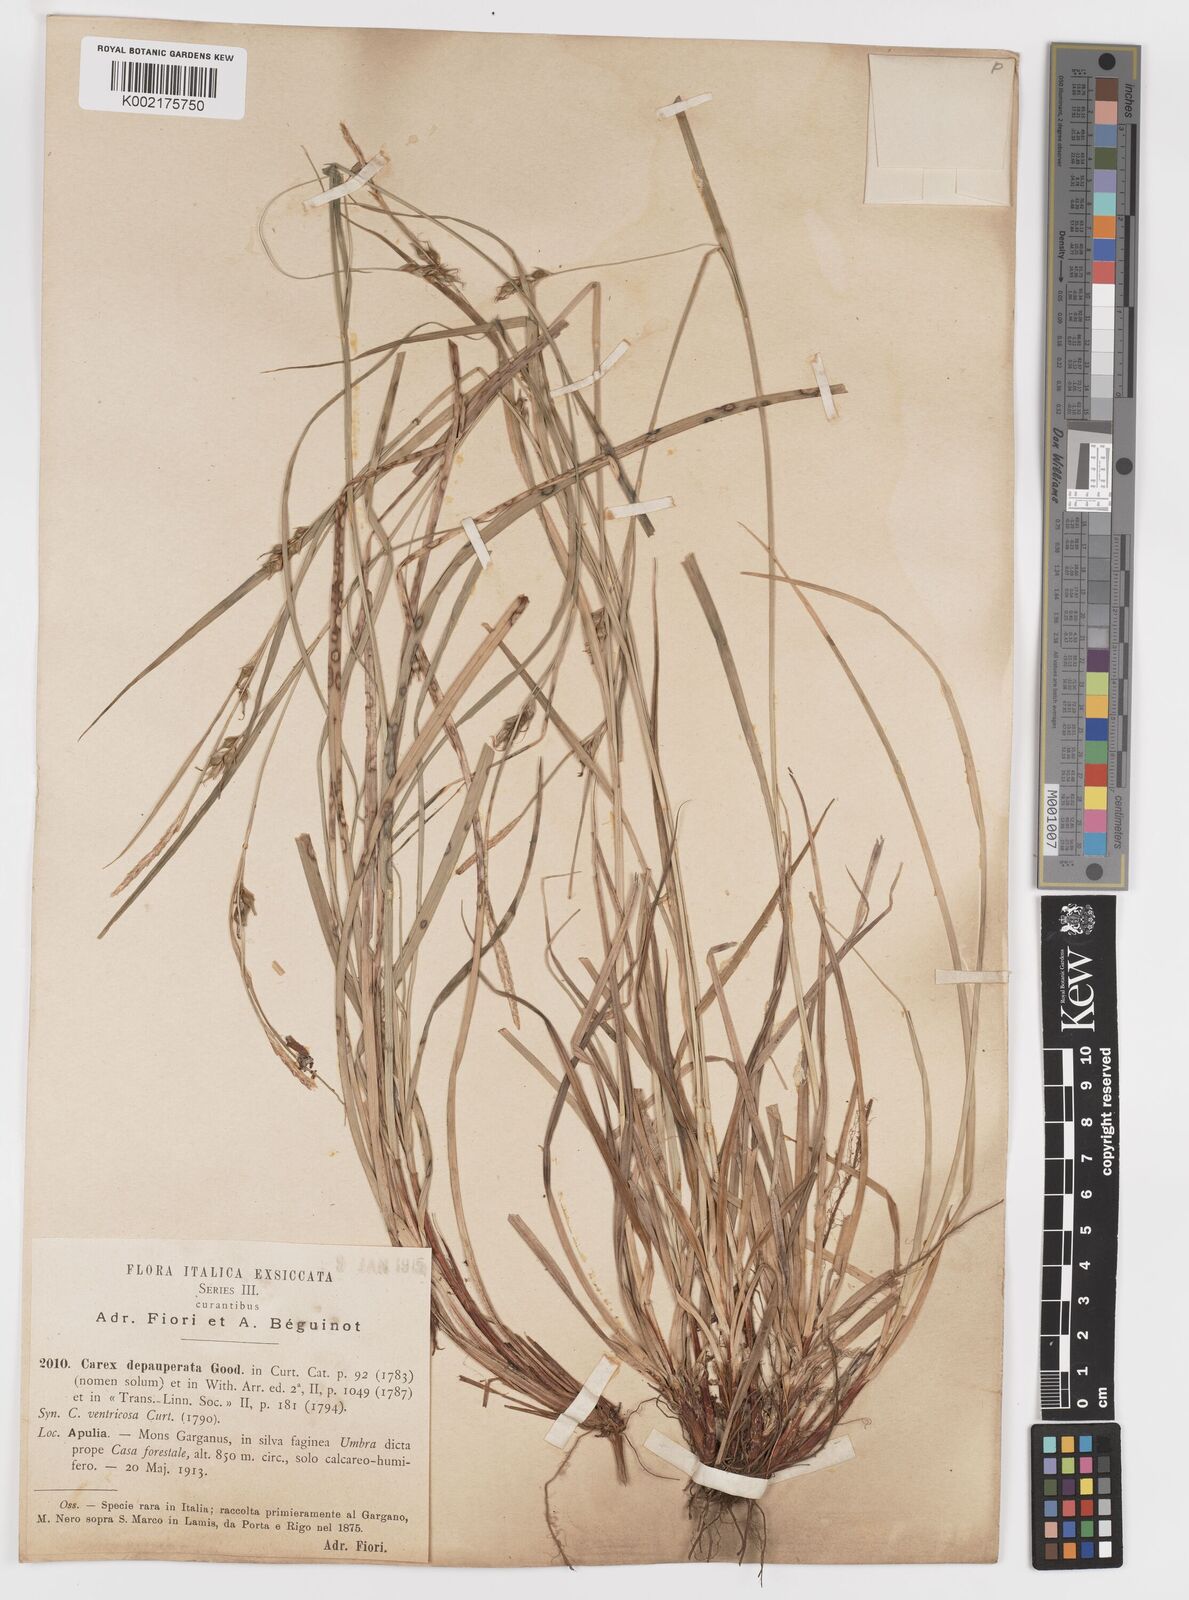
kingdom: Plantae
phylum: Tracheophyta
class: Liliopsida
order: Poales
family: Cyperaceae
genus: Carex
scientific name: Carex
